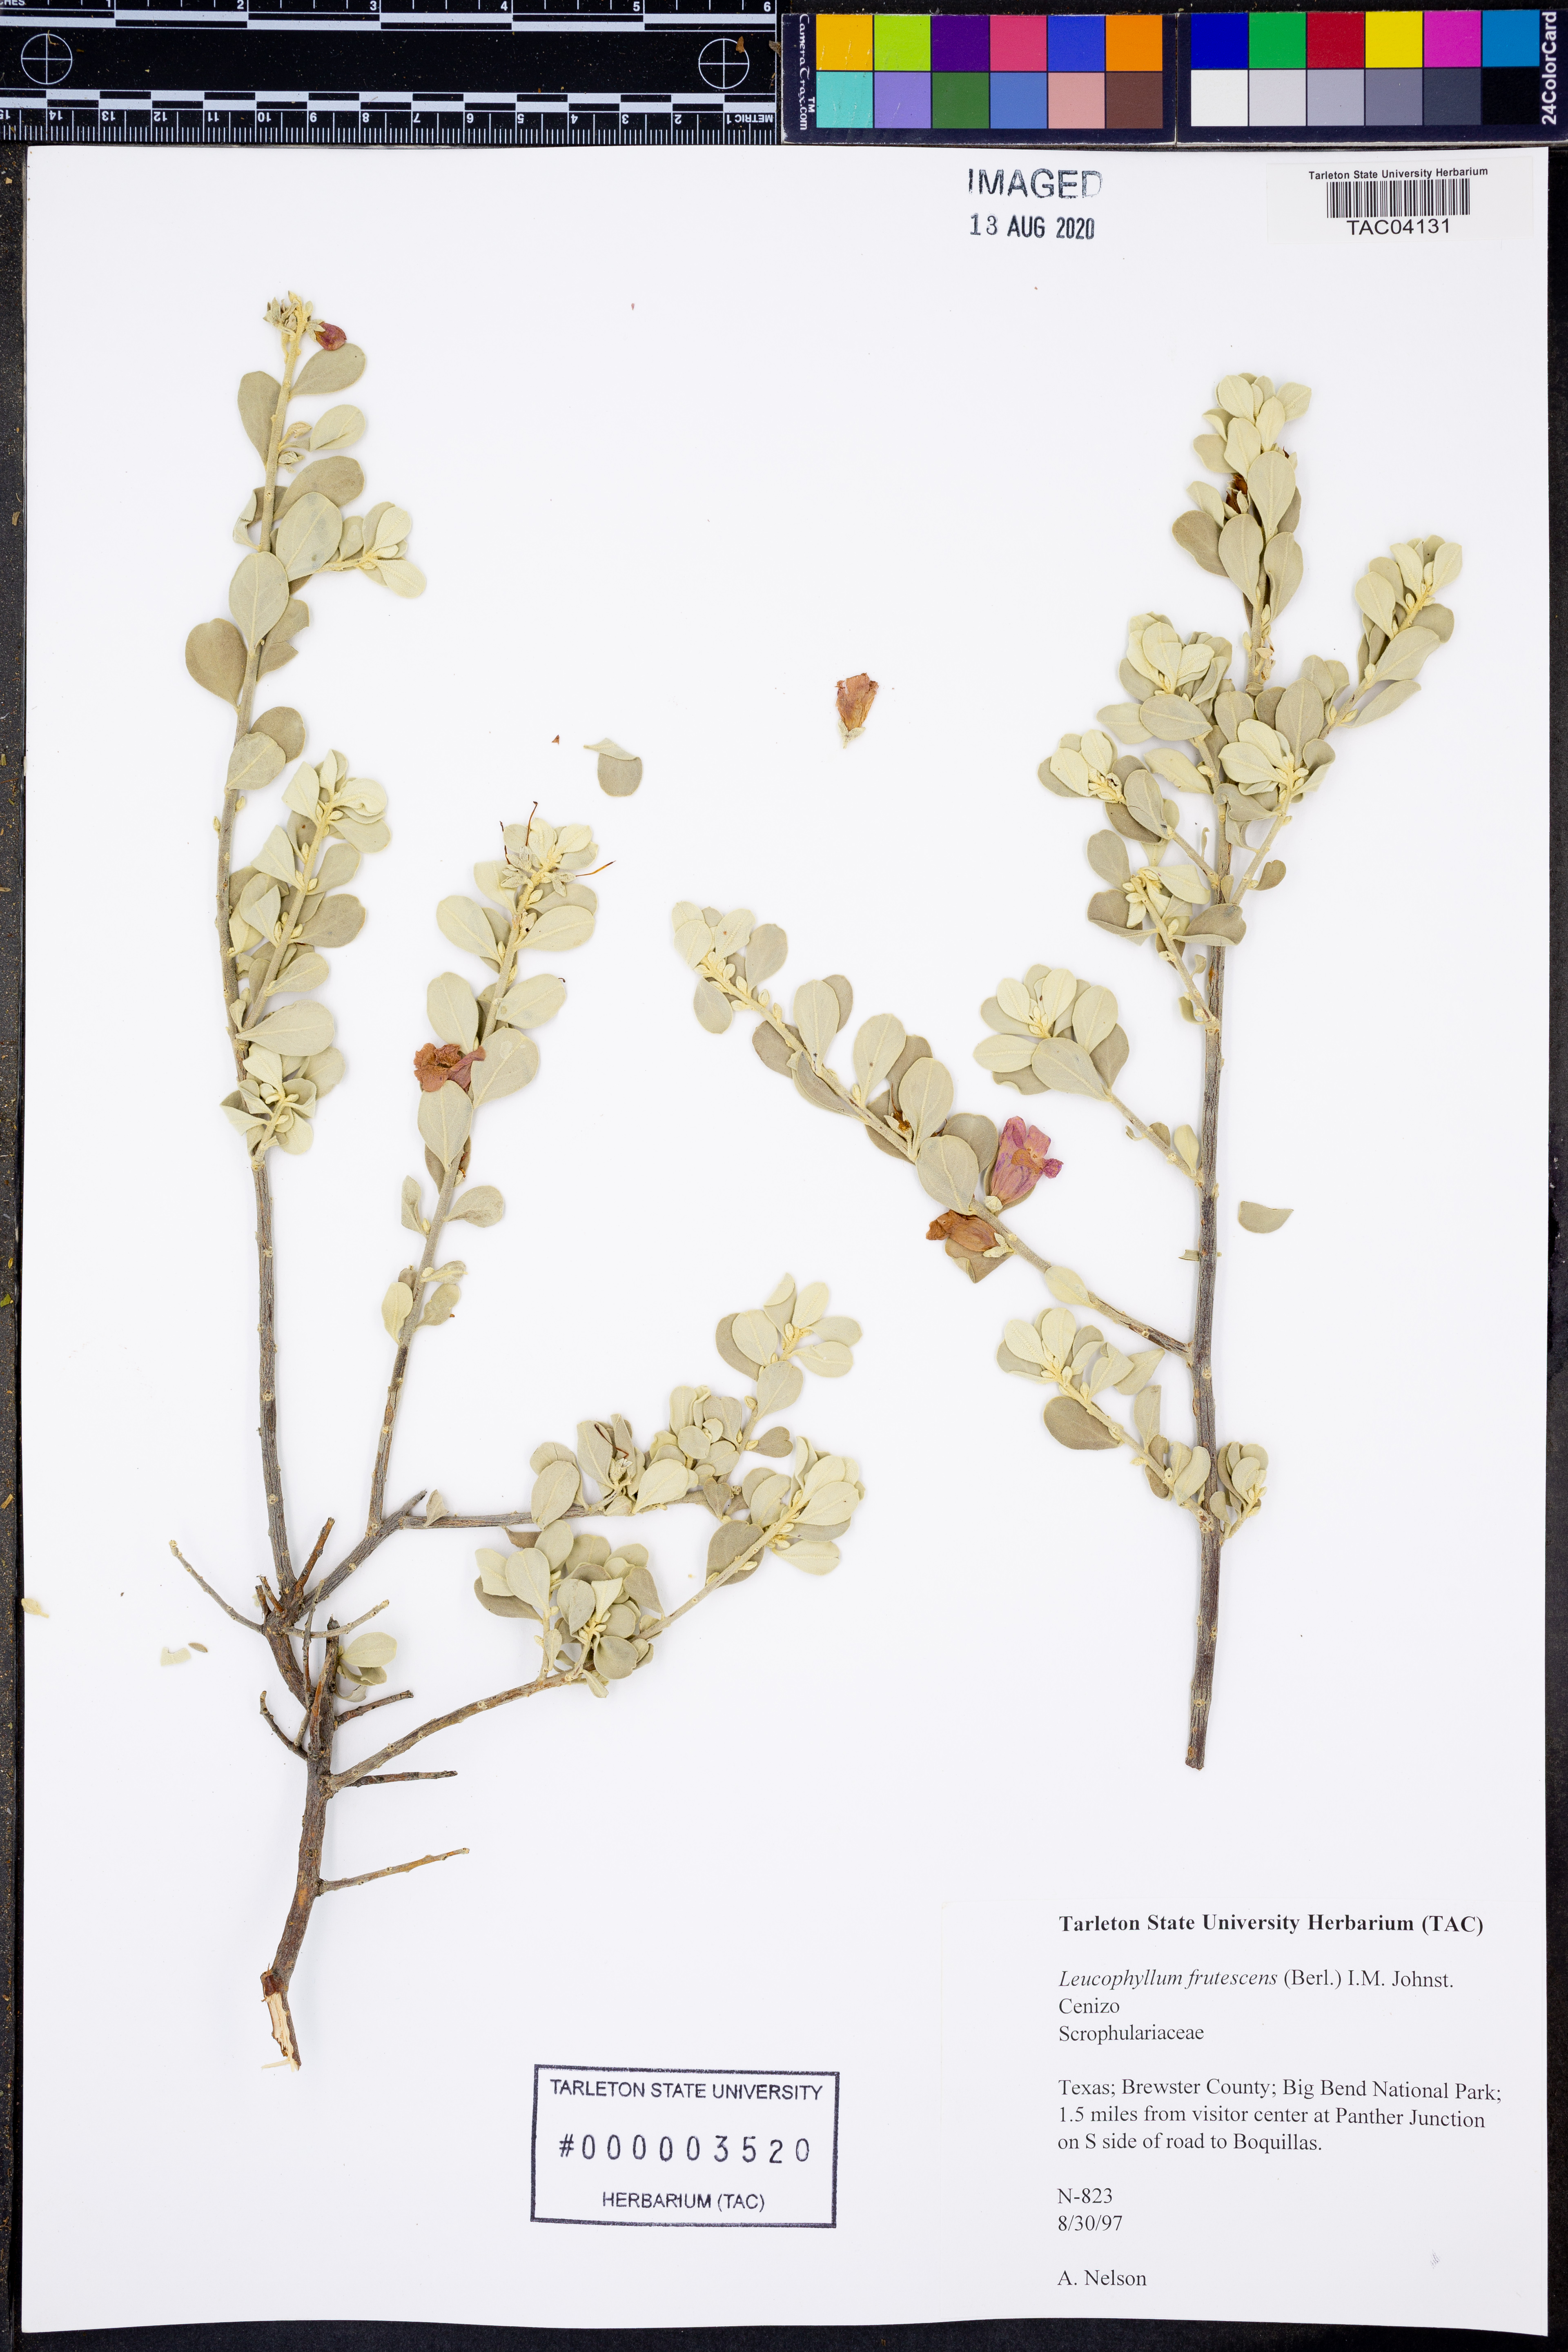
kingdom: Plantae
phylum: Tracheophyta
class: Magnoliopsida
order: Lamiales
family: Scrophulariaceae
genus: Leucophyllum
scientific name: Leucophyllum frutescens
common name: Texas silverleaf
